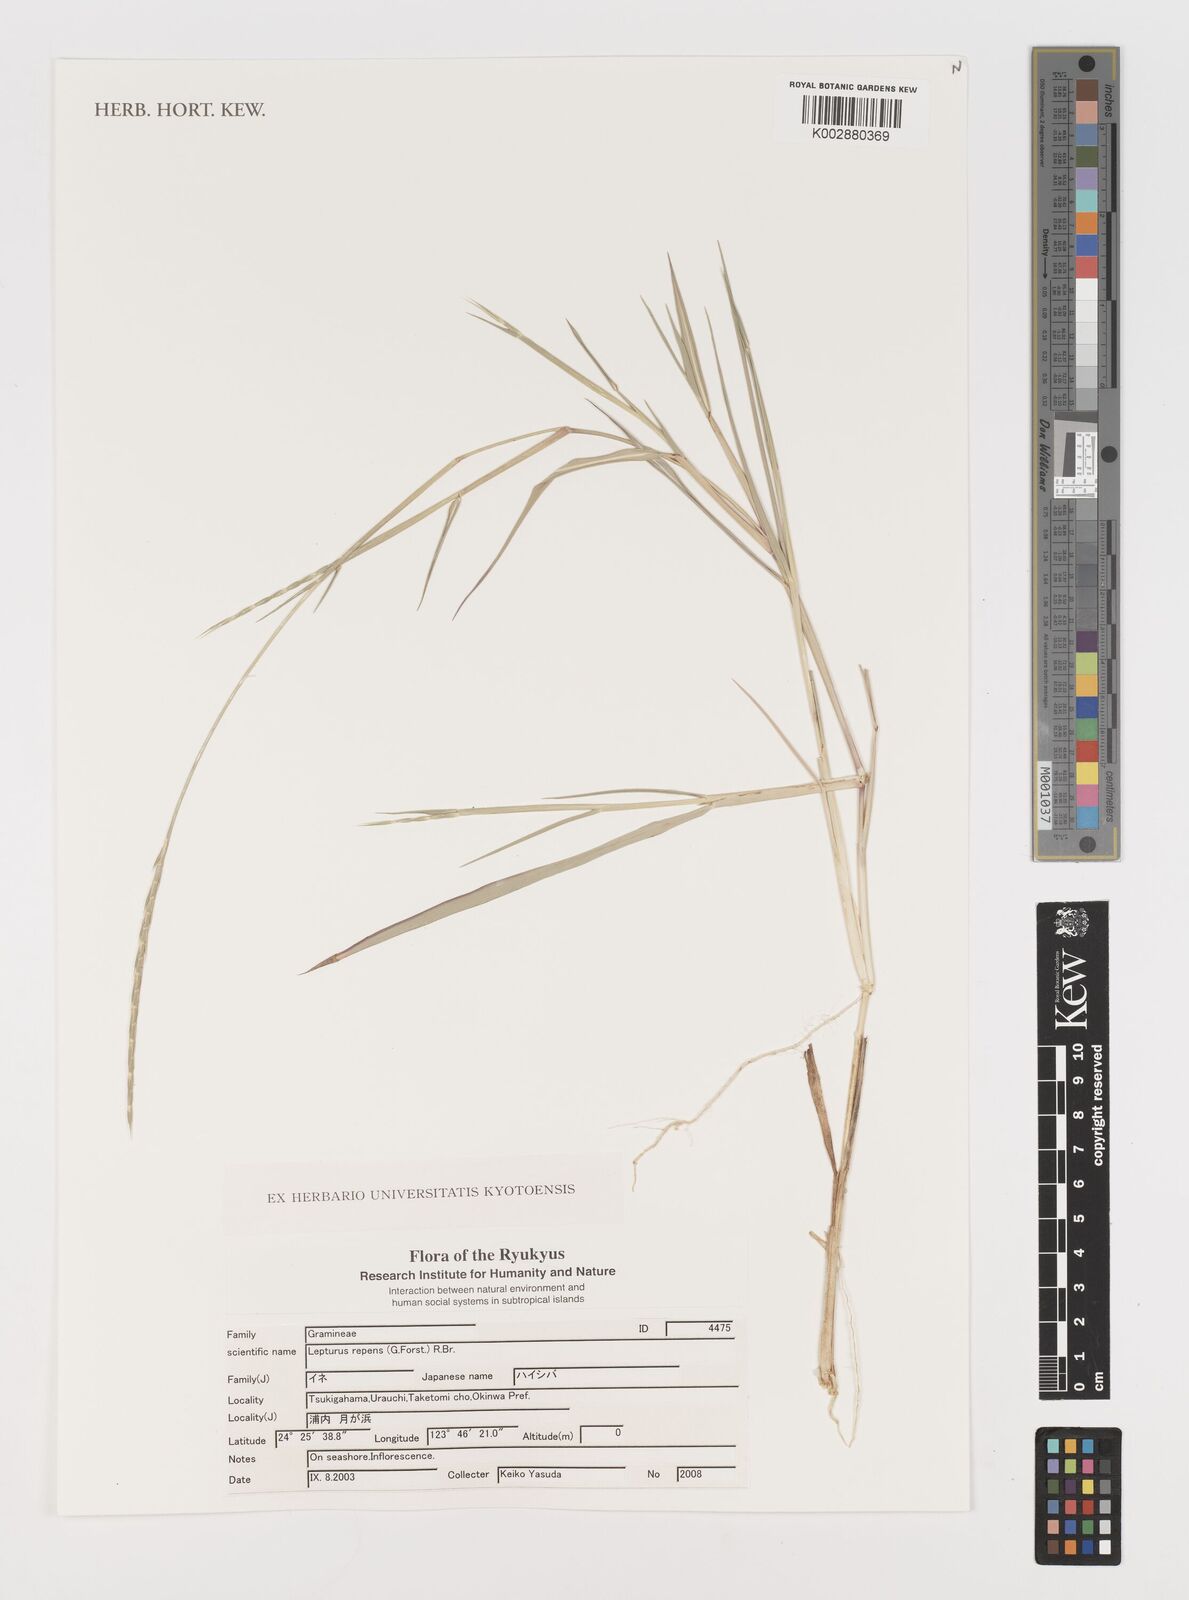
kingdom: Plantae
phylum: Tracheophyta
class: Liliopsida
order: Poales
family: Poaceae
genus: Lepturus
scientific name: Lepturus repens
